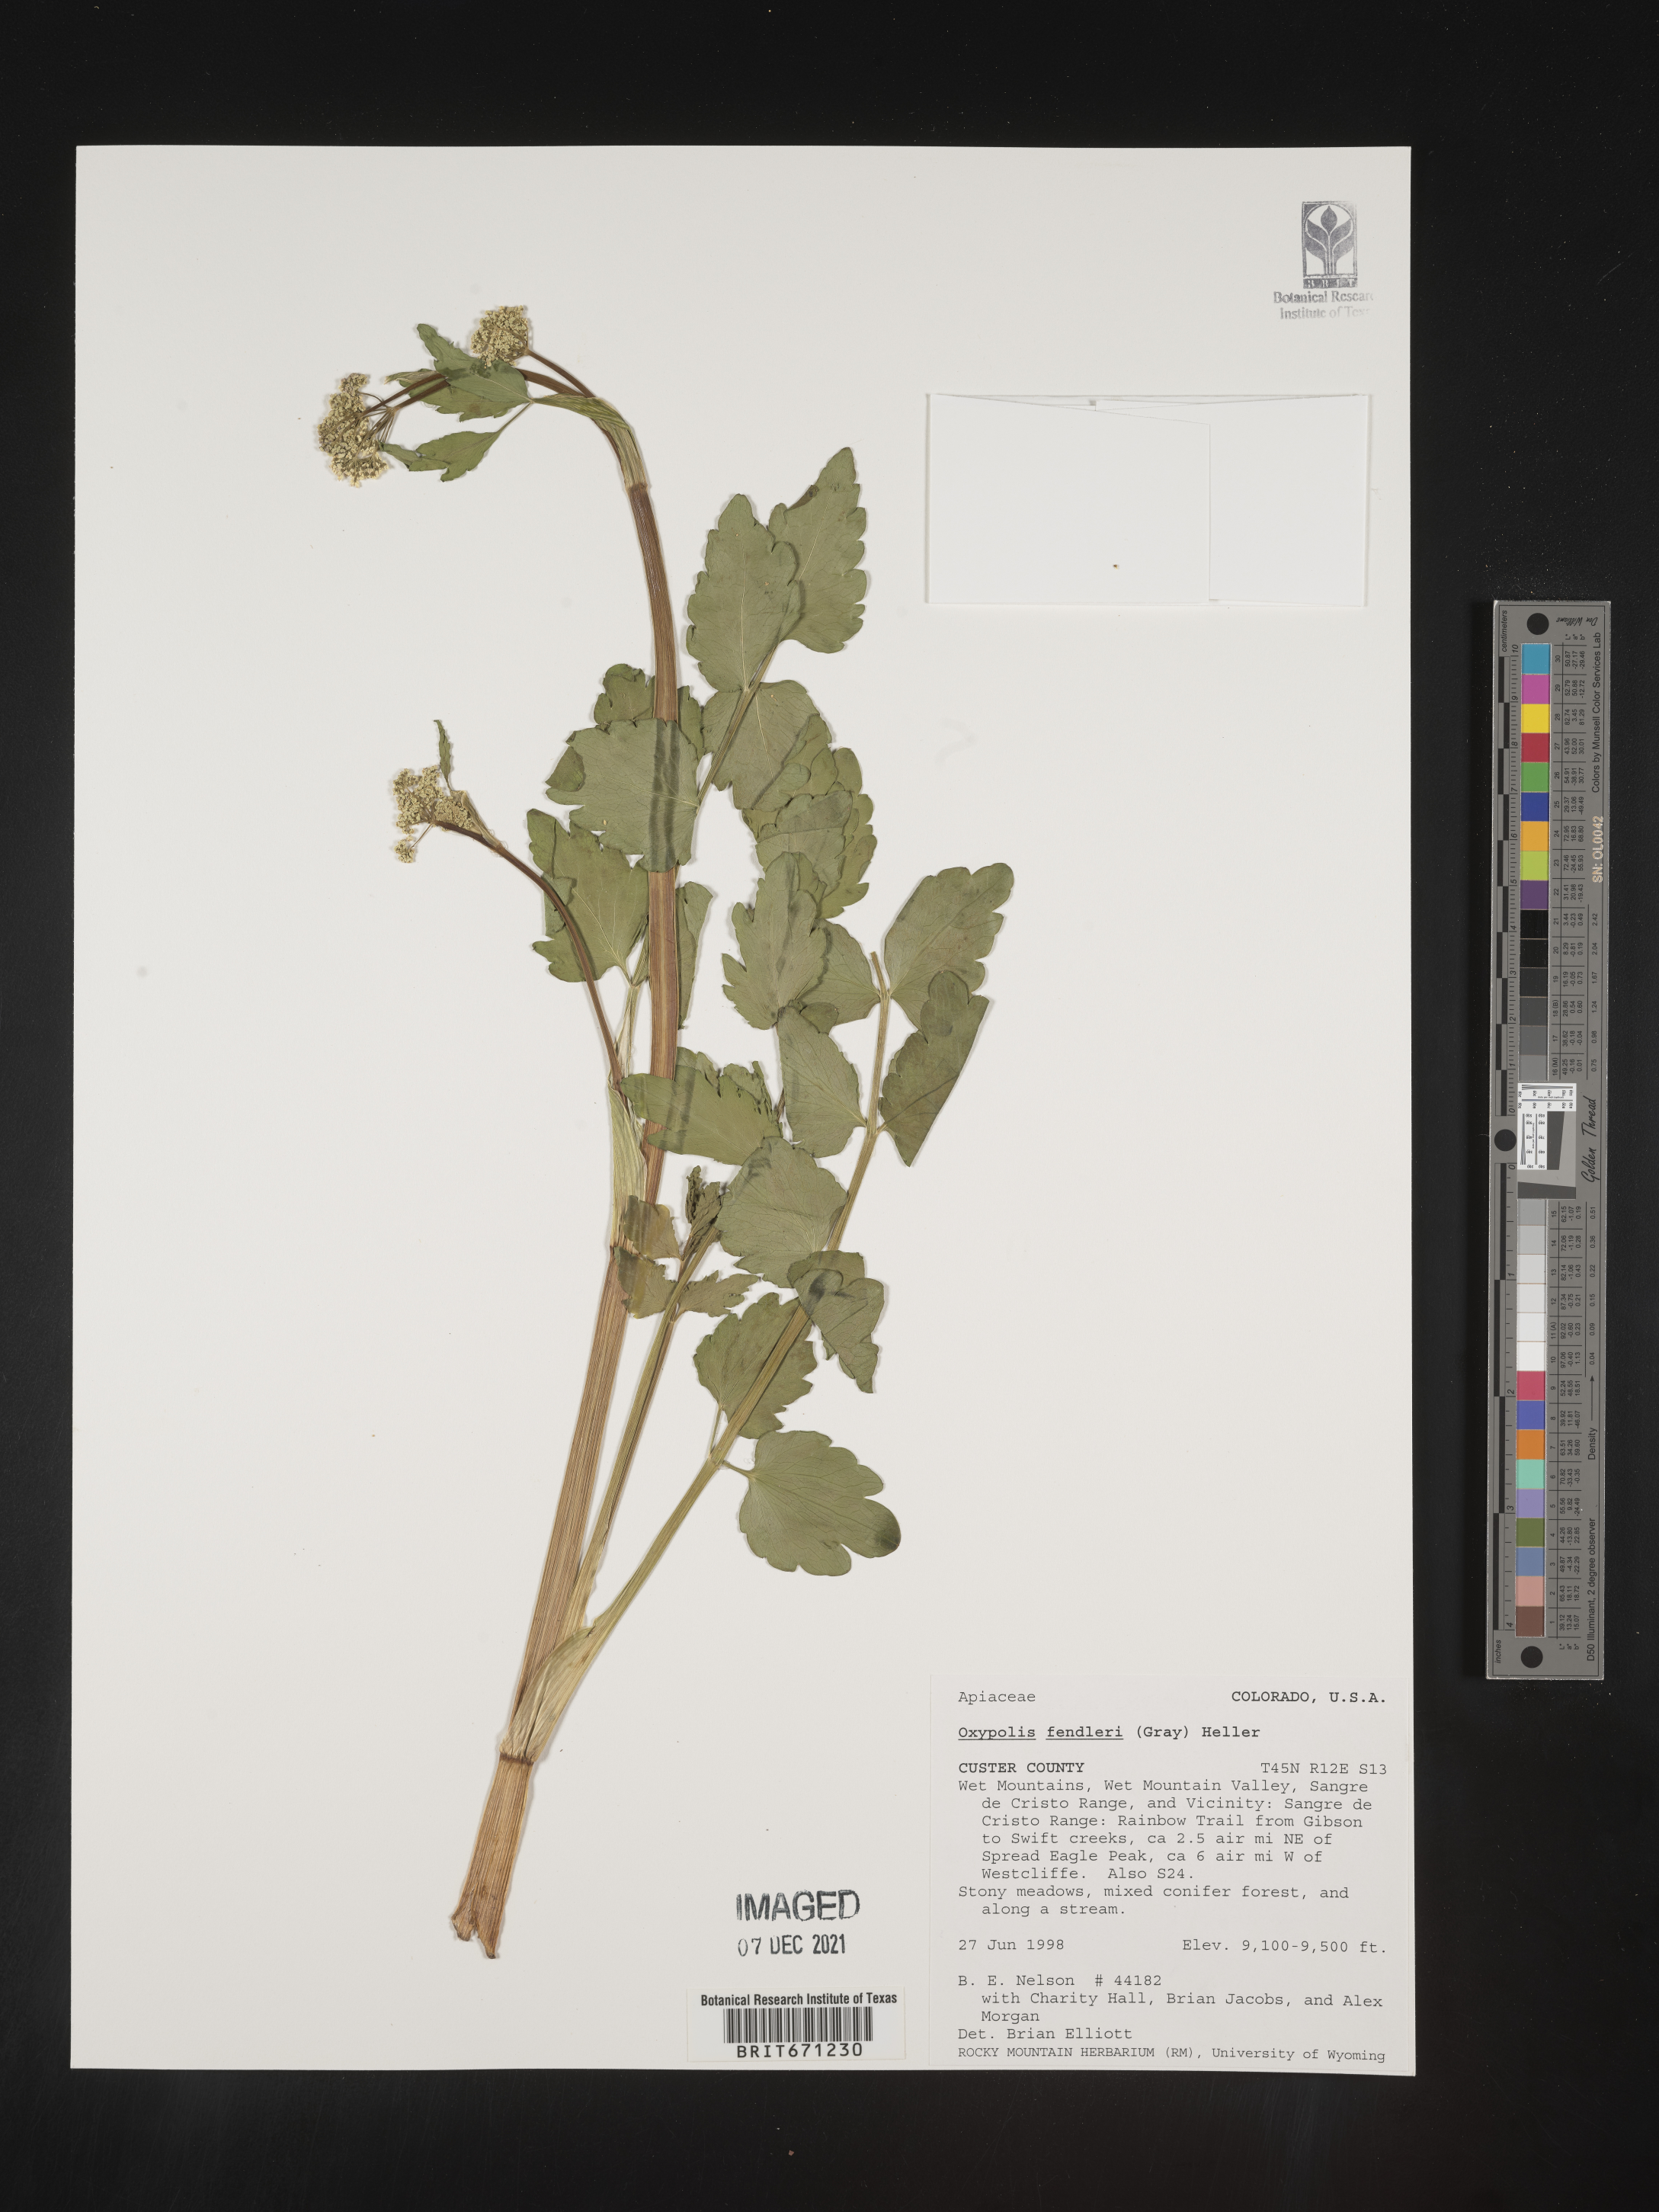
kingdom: Plantae
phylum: Tracheophyta
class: Magnoliopsida
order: Apiales
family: Apiaceae
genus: Oxypolis
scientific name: Oxypolis fendleri
